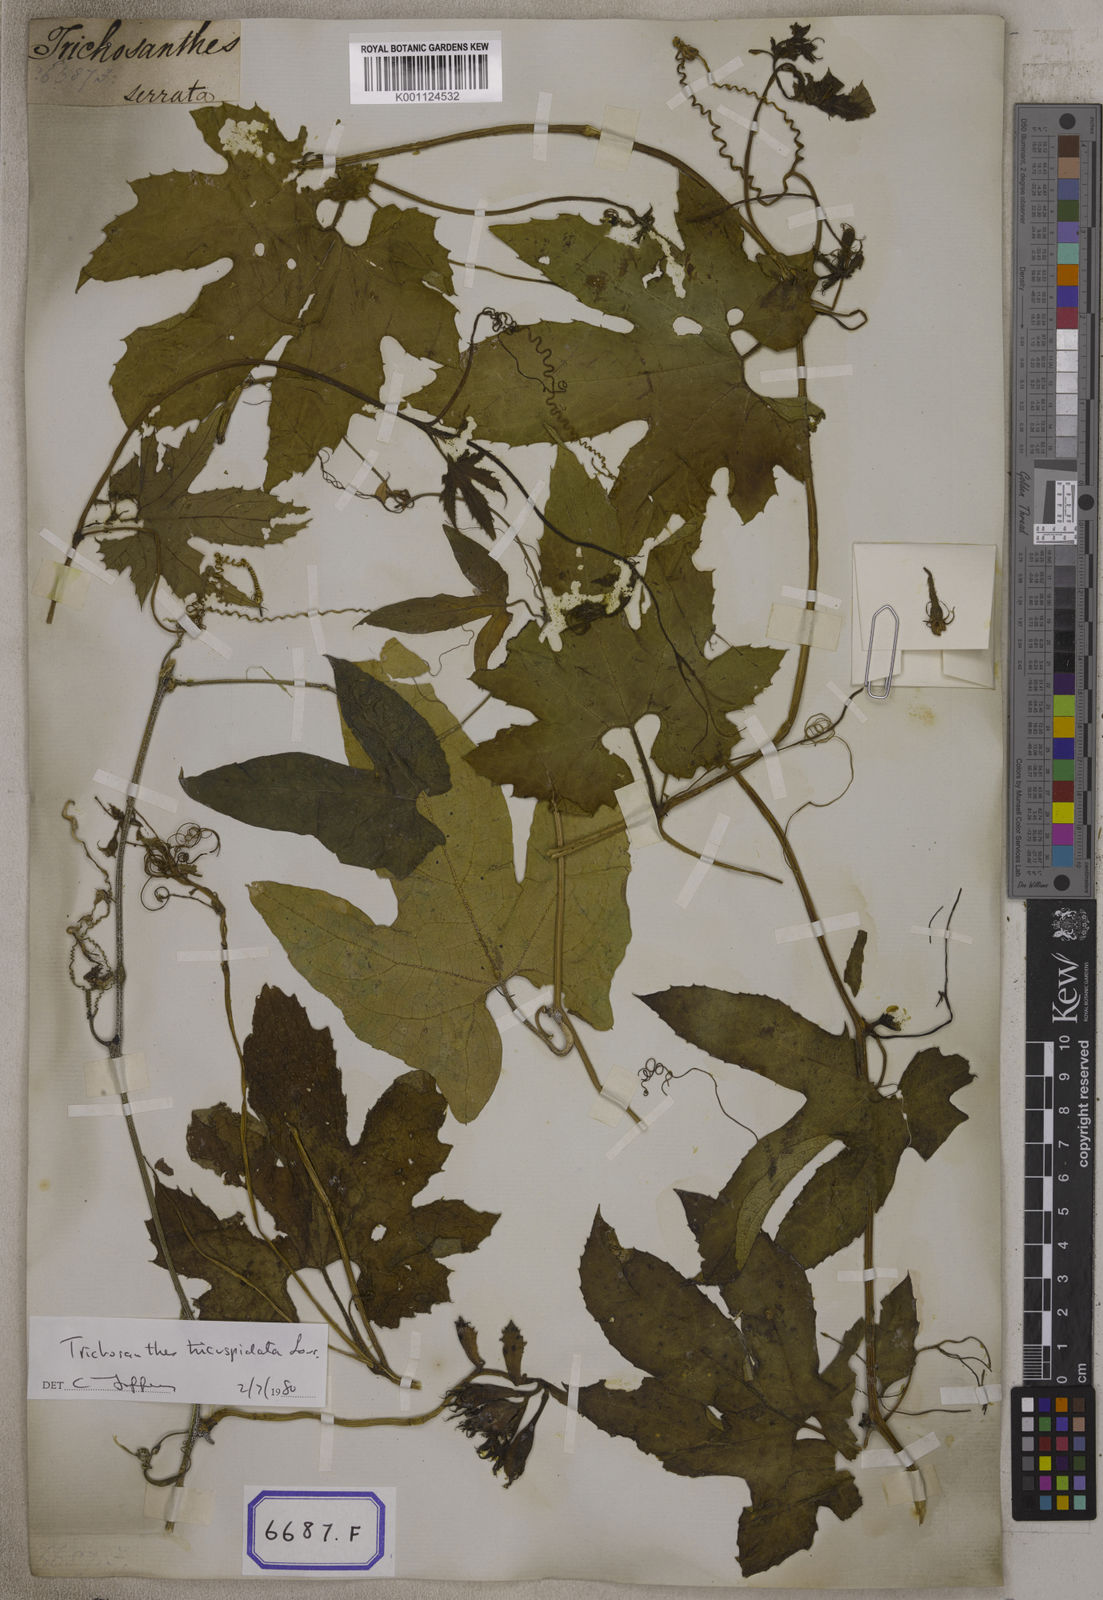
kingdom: Plantae
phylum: Tracheophyta
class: Magnoliopsida
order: Cucurbitales
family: Cucurbitaceae
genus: Trichosanthes
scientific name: Trichosanthes cucumerina
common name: Snakegourd
